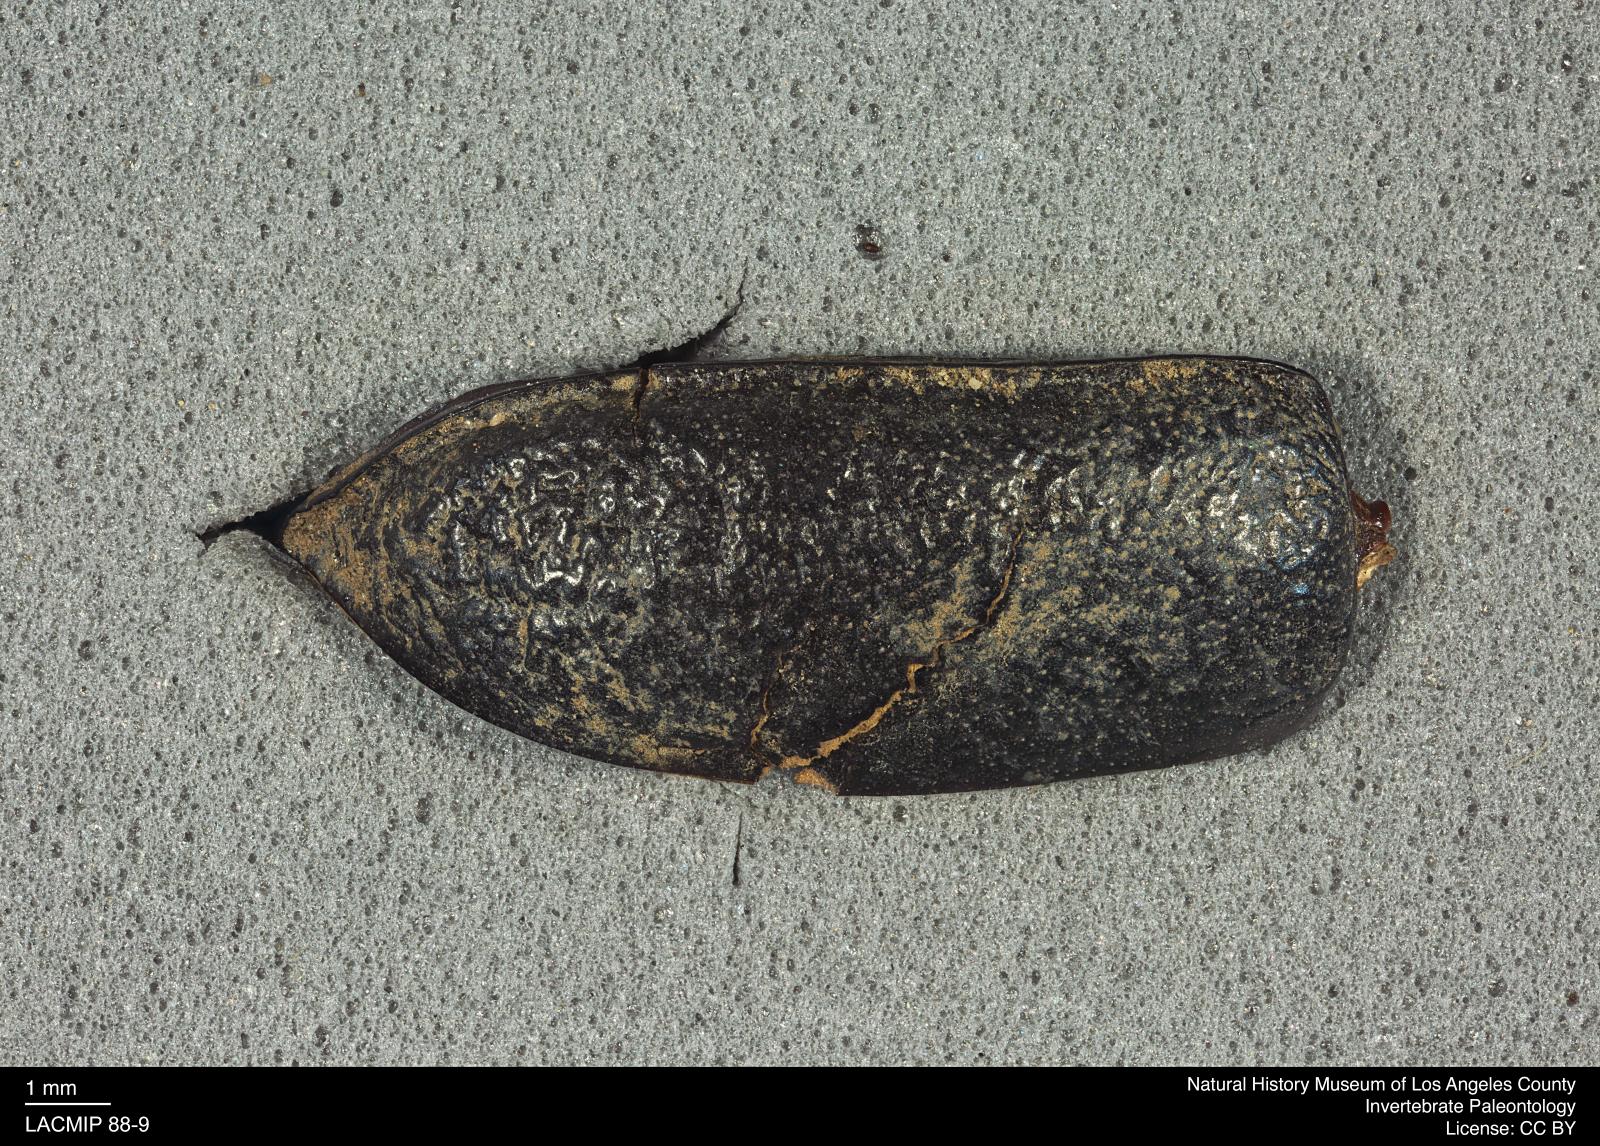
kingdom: Animalia
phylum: Arthropoda
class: Insecta
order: Coleoptera
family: Tenebrionidae
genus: Coniontis
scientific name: Coniontis abdominalis
